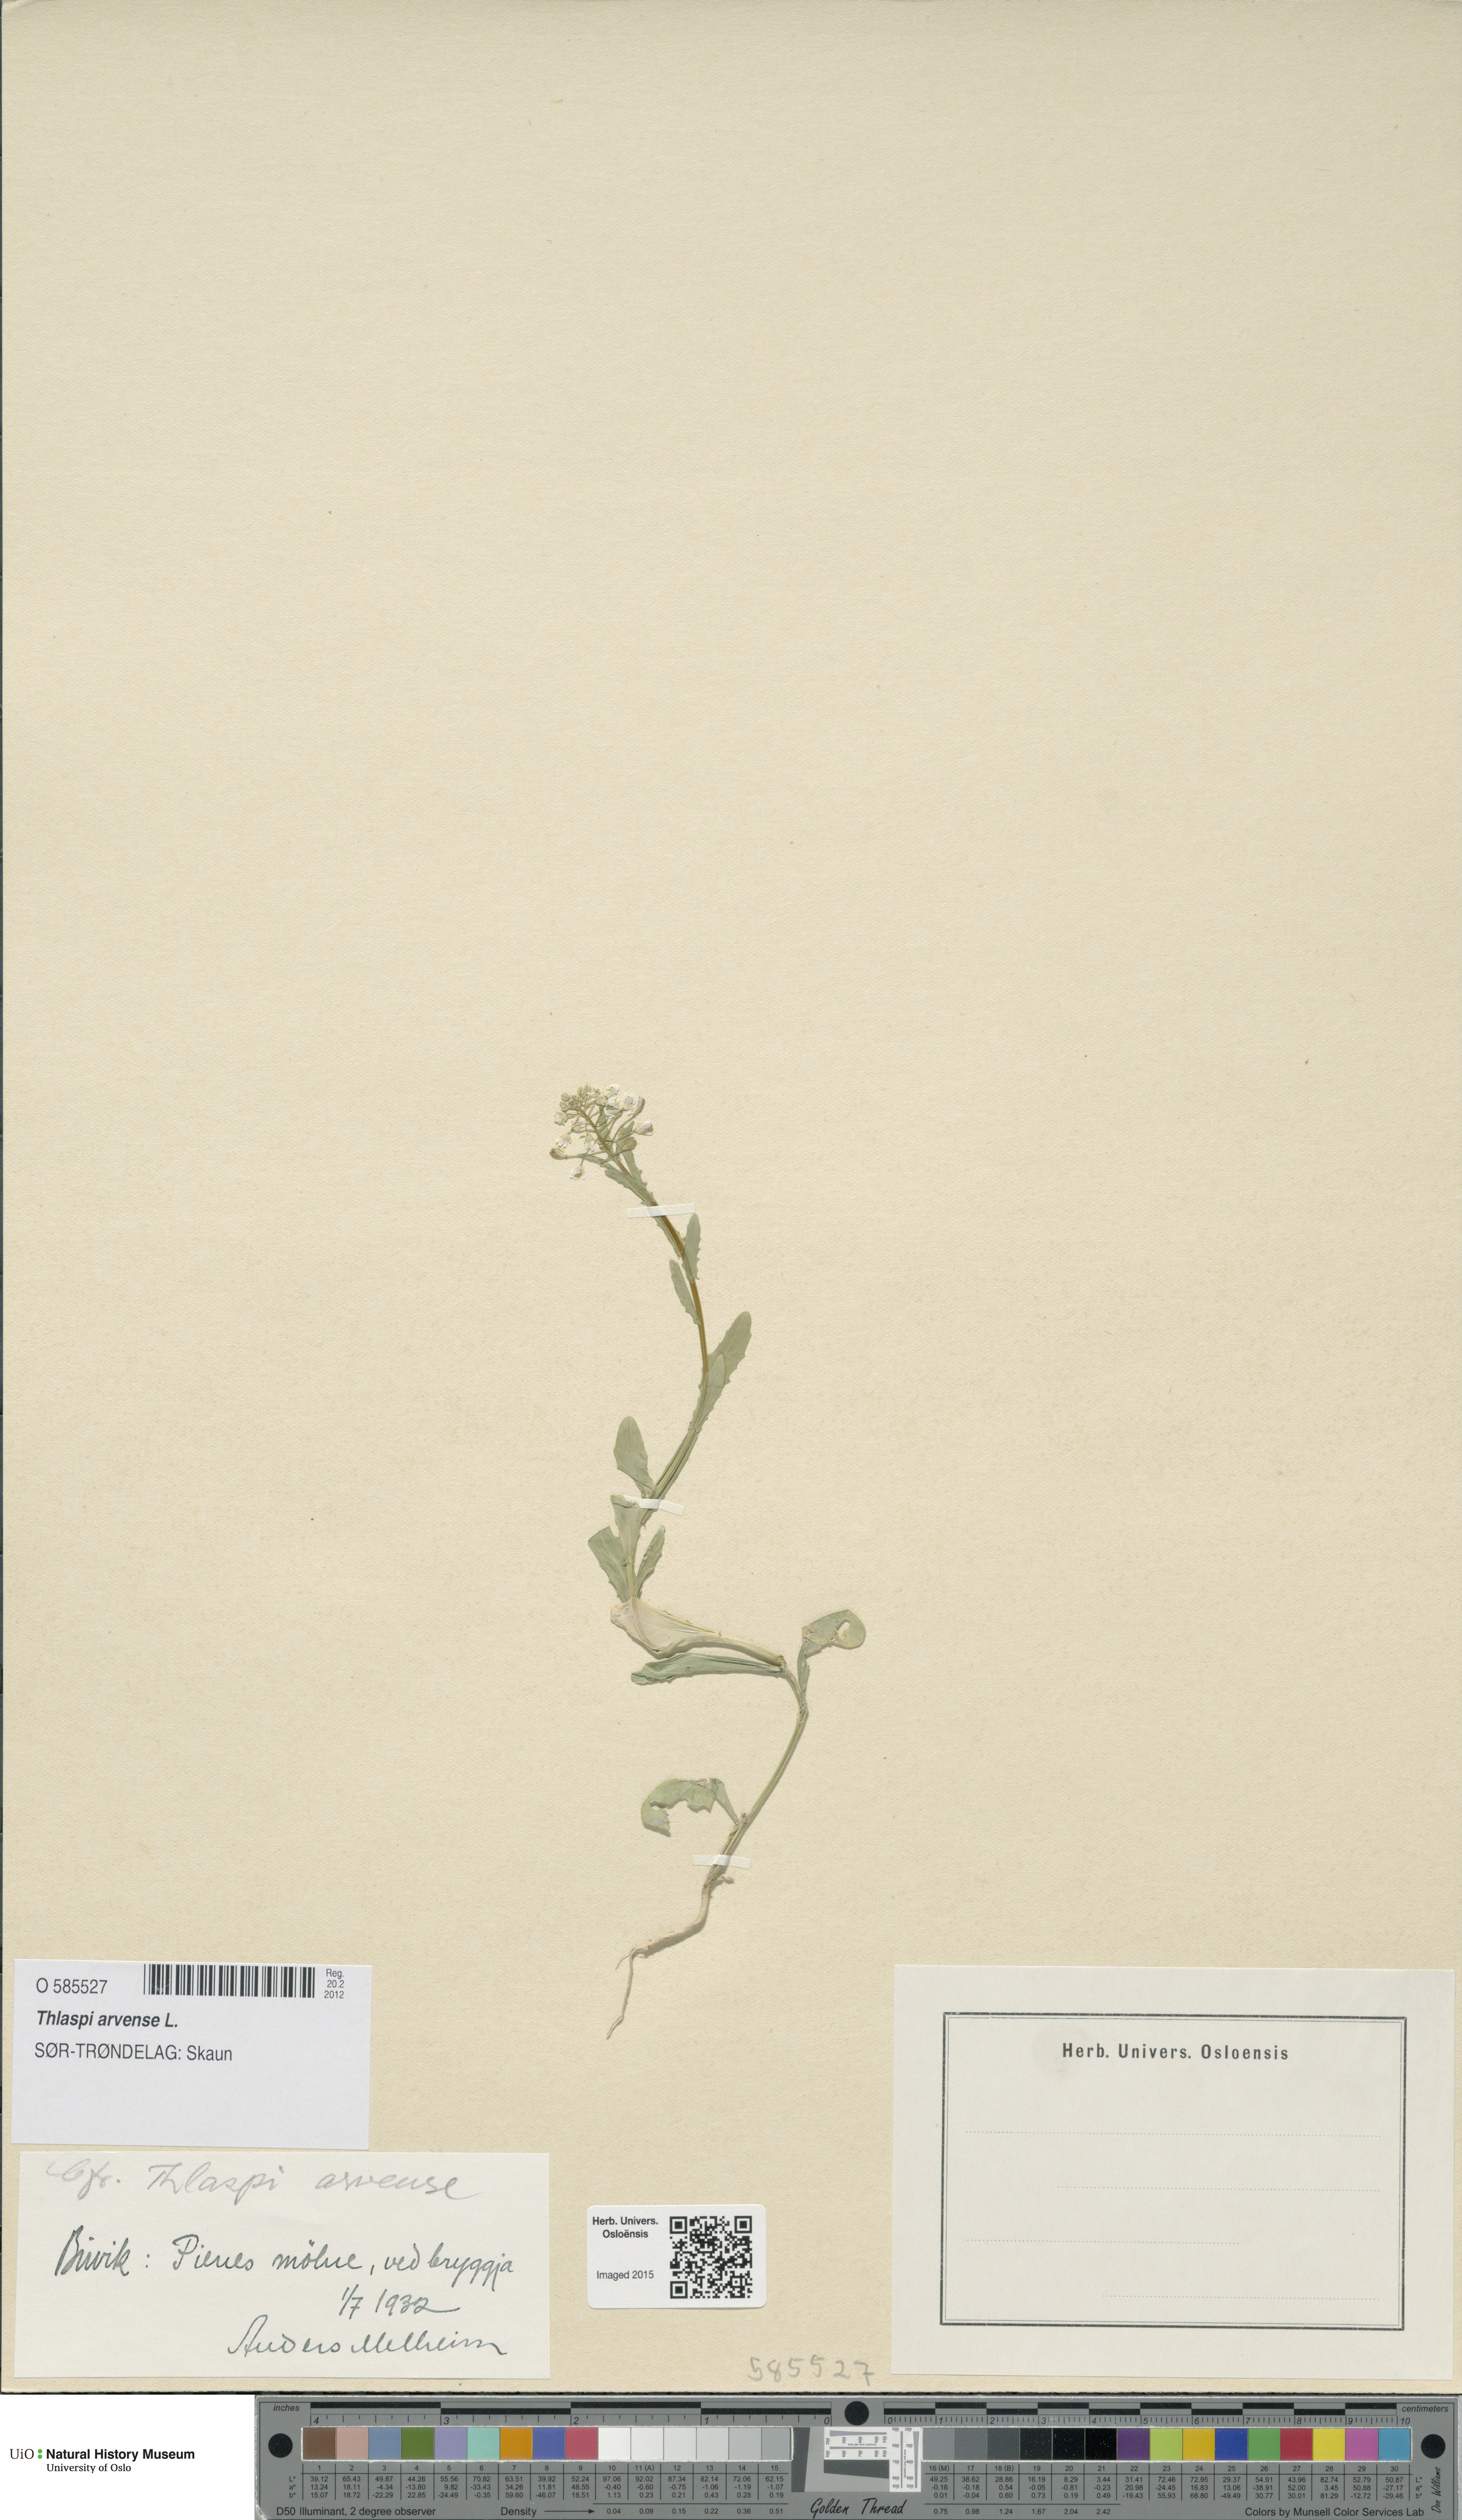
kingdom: Plantae
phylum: Tracheophyta
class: Magnoliopsida
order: Brassicales
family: Brassicaceae
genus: Thlaspi
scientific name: Thlaspi arvense
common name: Field pennycress
